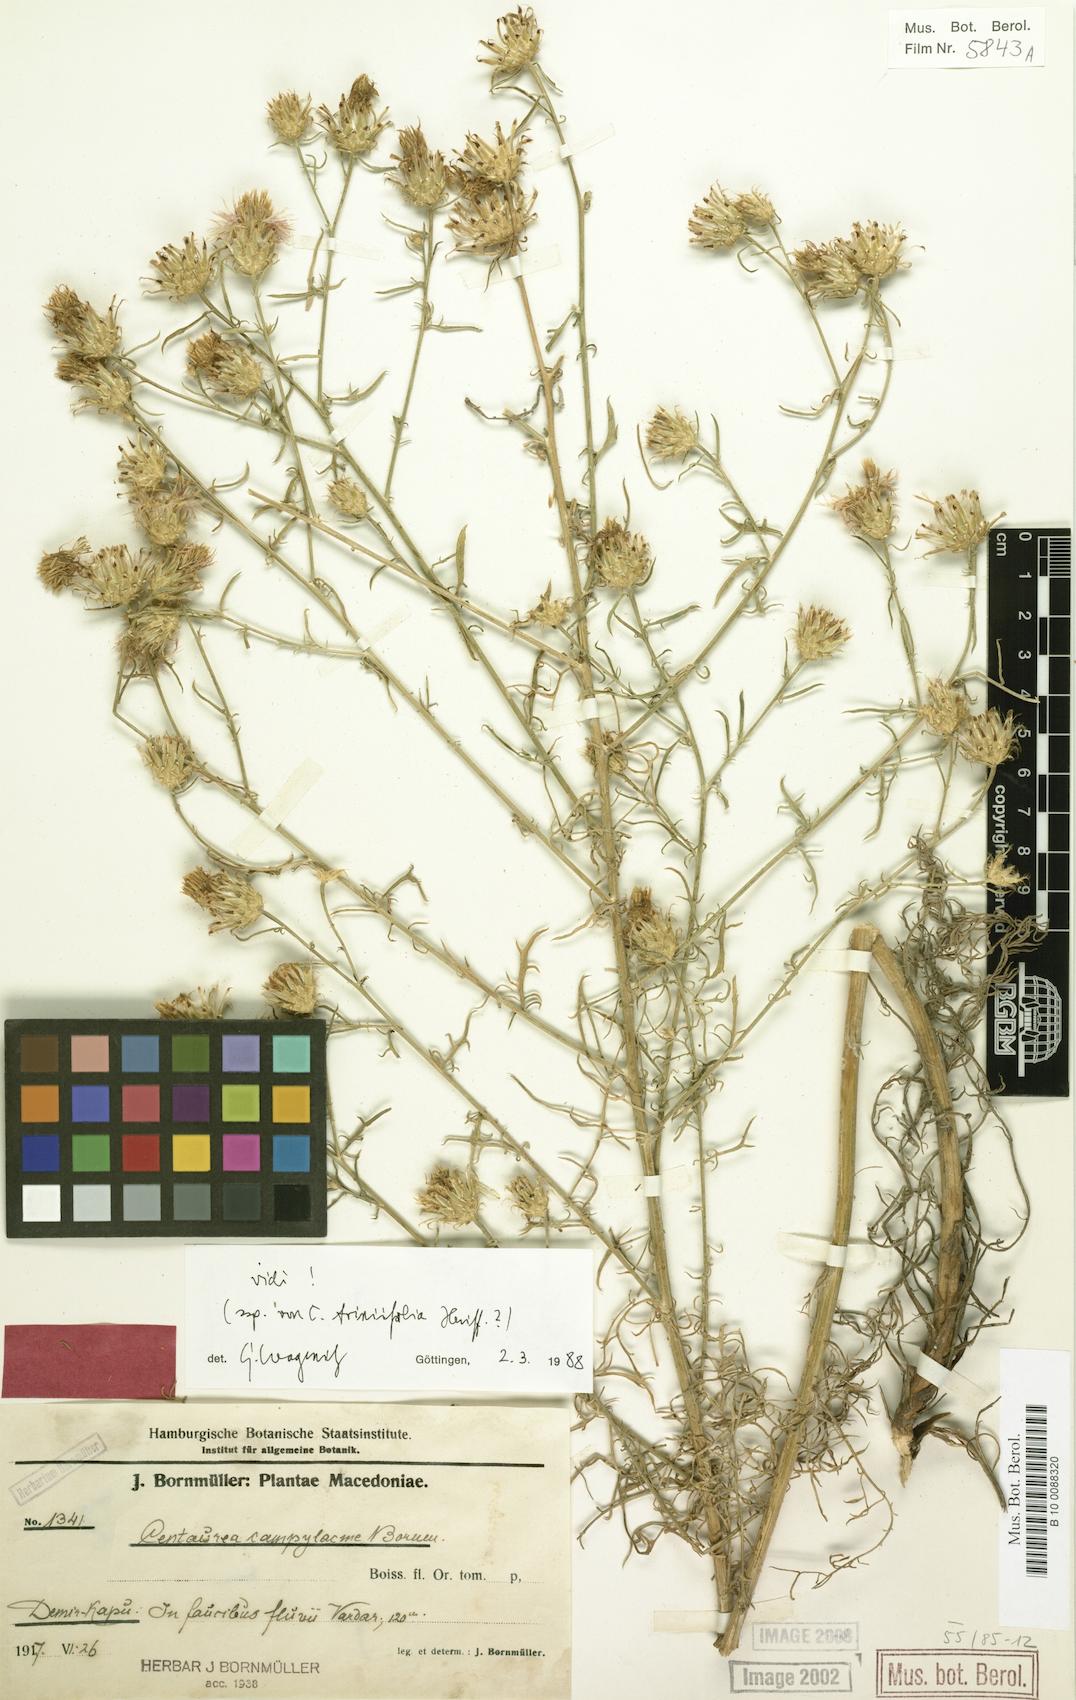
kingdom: Plantae
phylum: Tracheophyta
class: Magnoliopsida
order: Asterales
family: Asteraceae
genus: Centaurea
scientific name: Centaurea triniifolia
